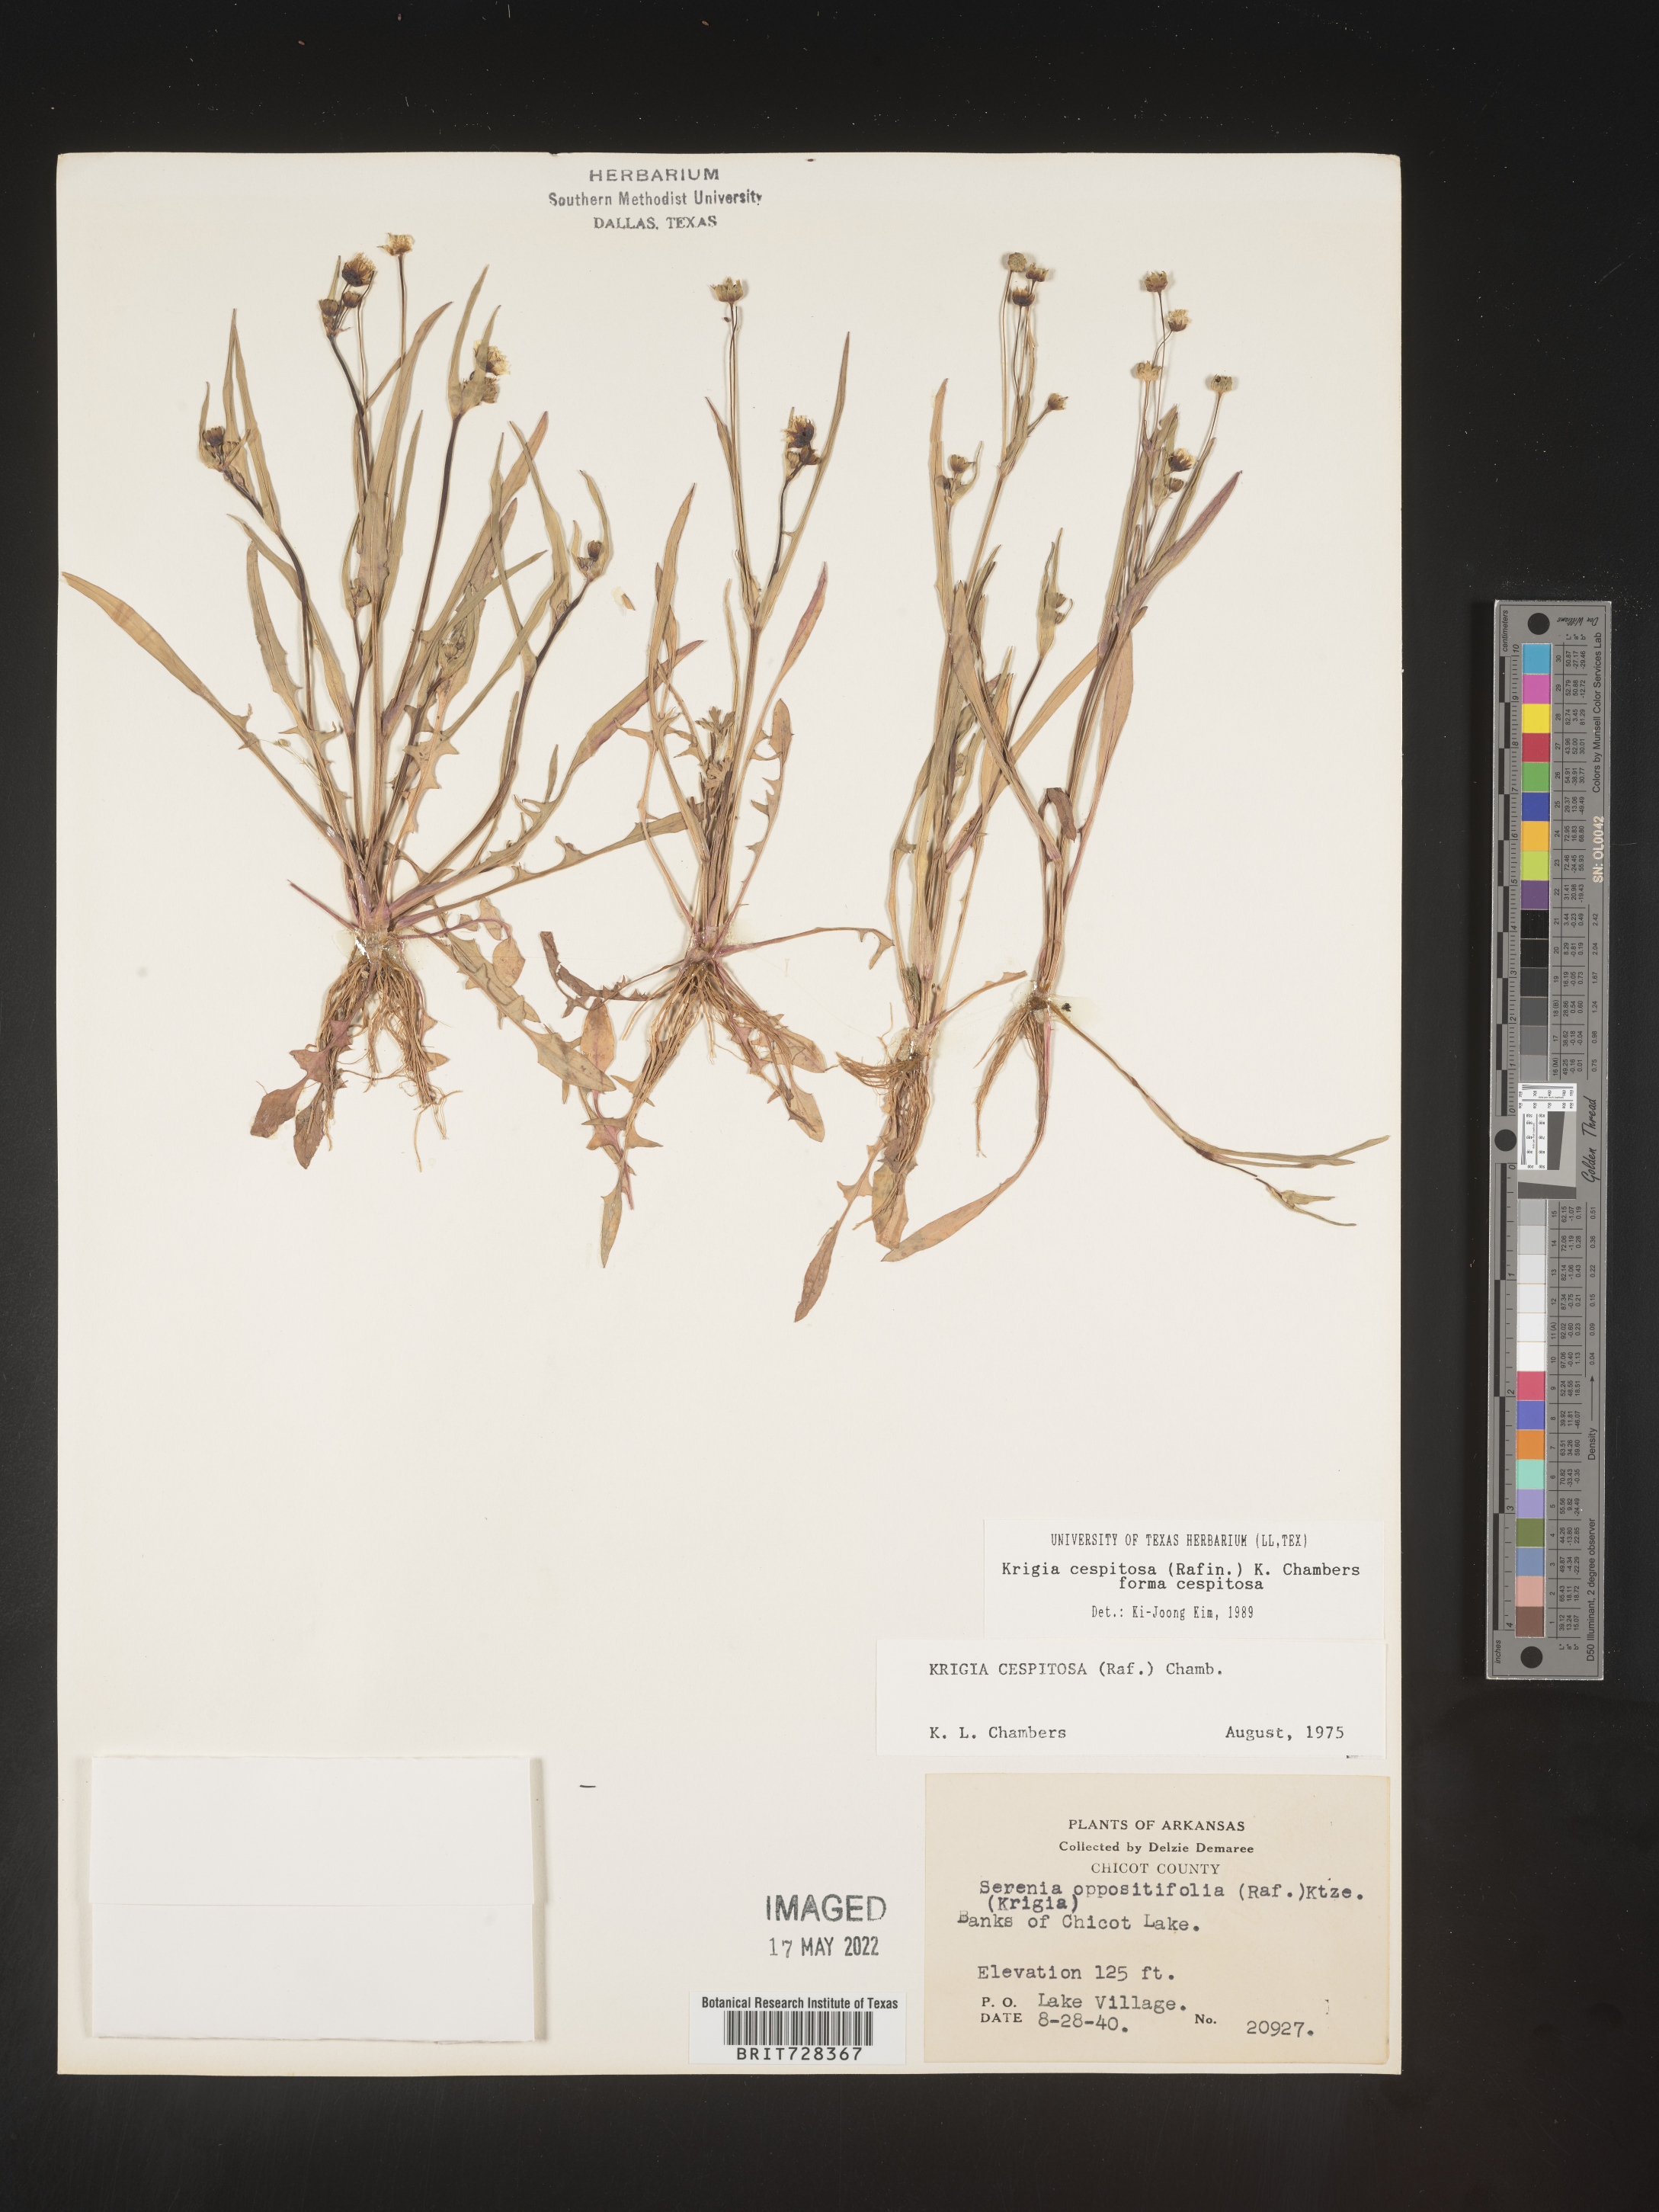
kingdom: Plantae
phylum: Tracheophyta
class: Magnoliopsida
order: Asterales
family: Asteraceae
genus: Krigia
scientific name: Krigia caespitosa
